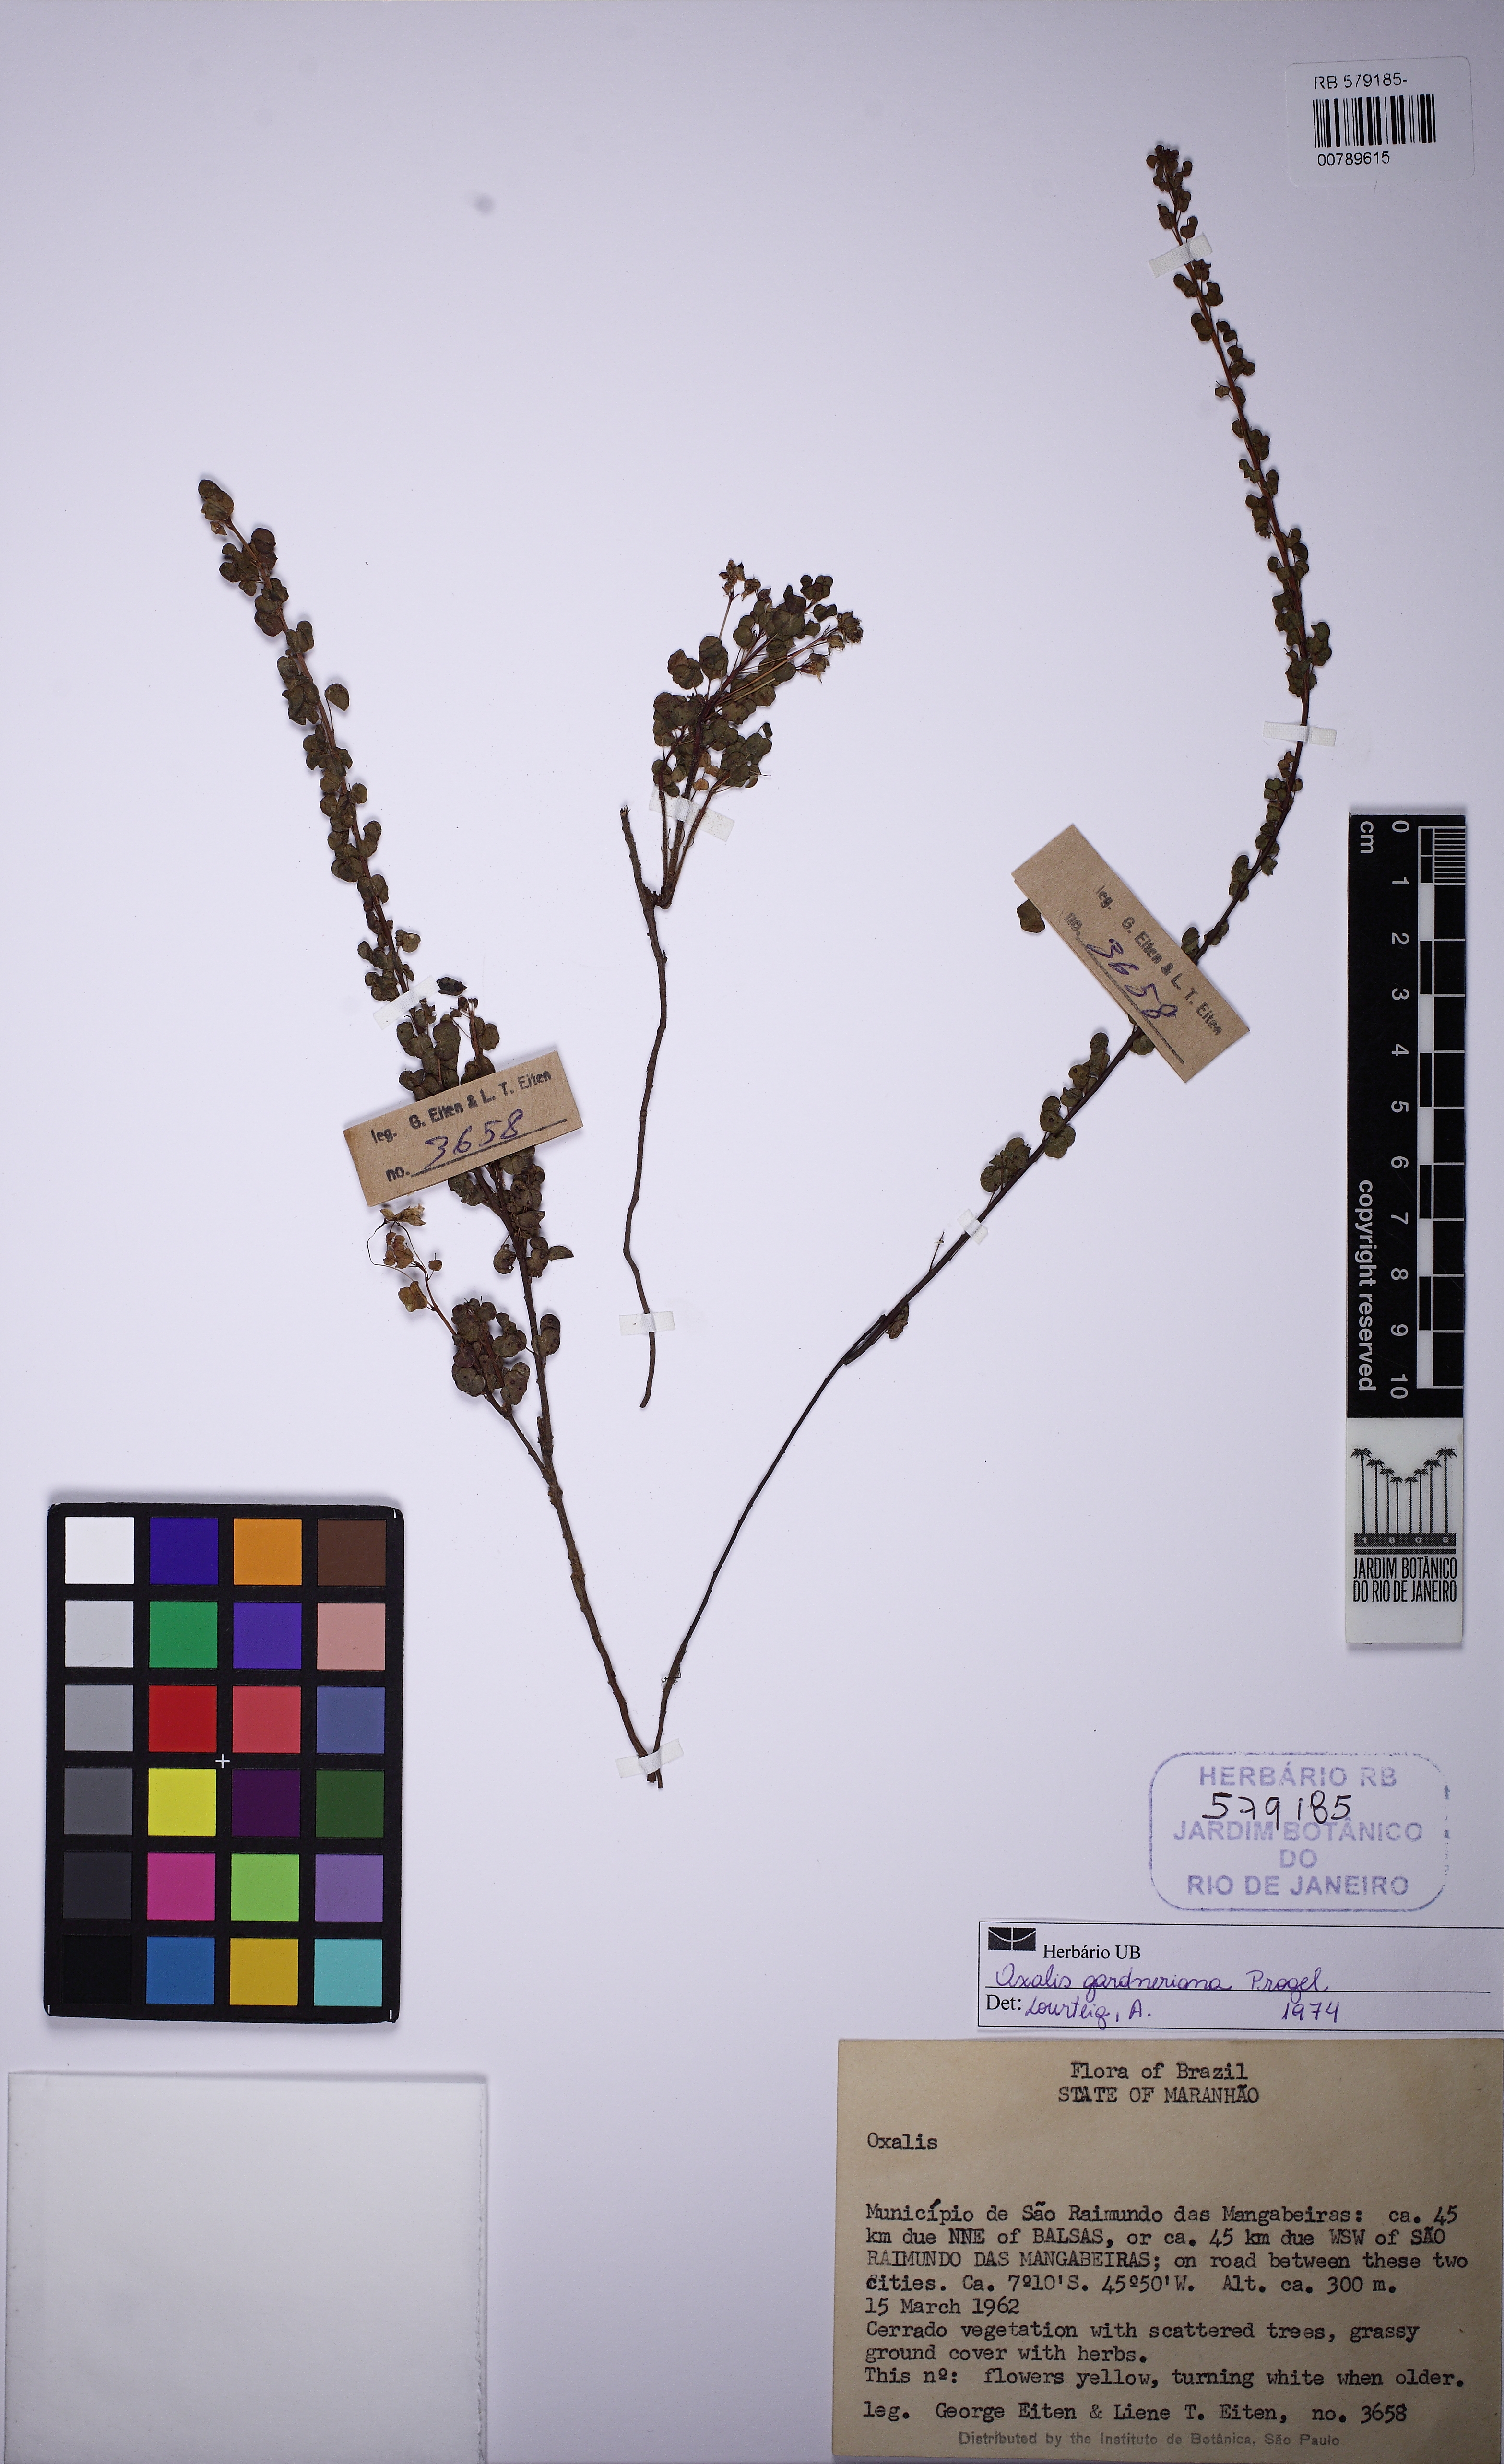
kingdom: Plantae
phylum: Tracheophyta
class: Magnoliopsida
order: Oxalidales
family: Oxalidaceae
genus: Oxalis
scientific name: Oxalis gardneriana
